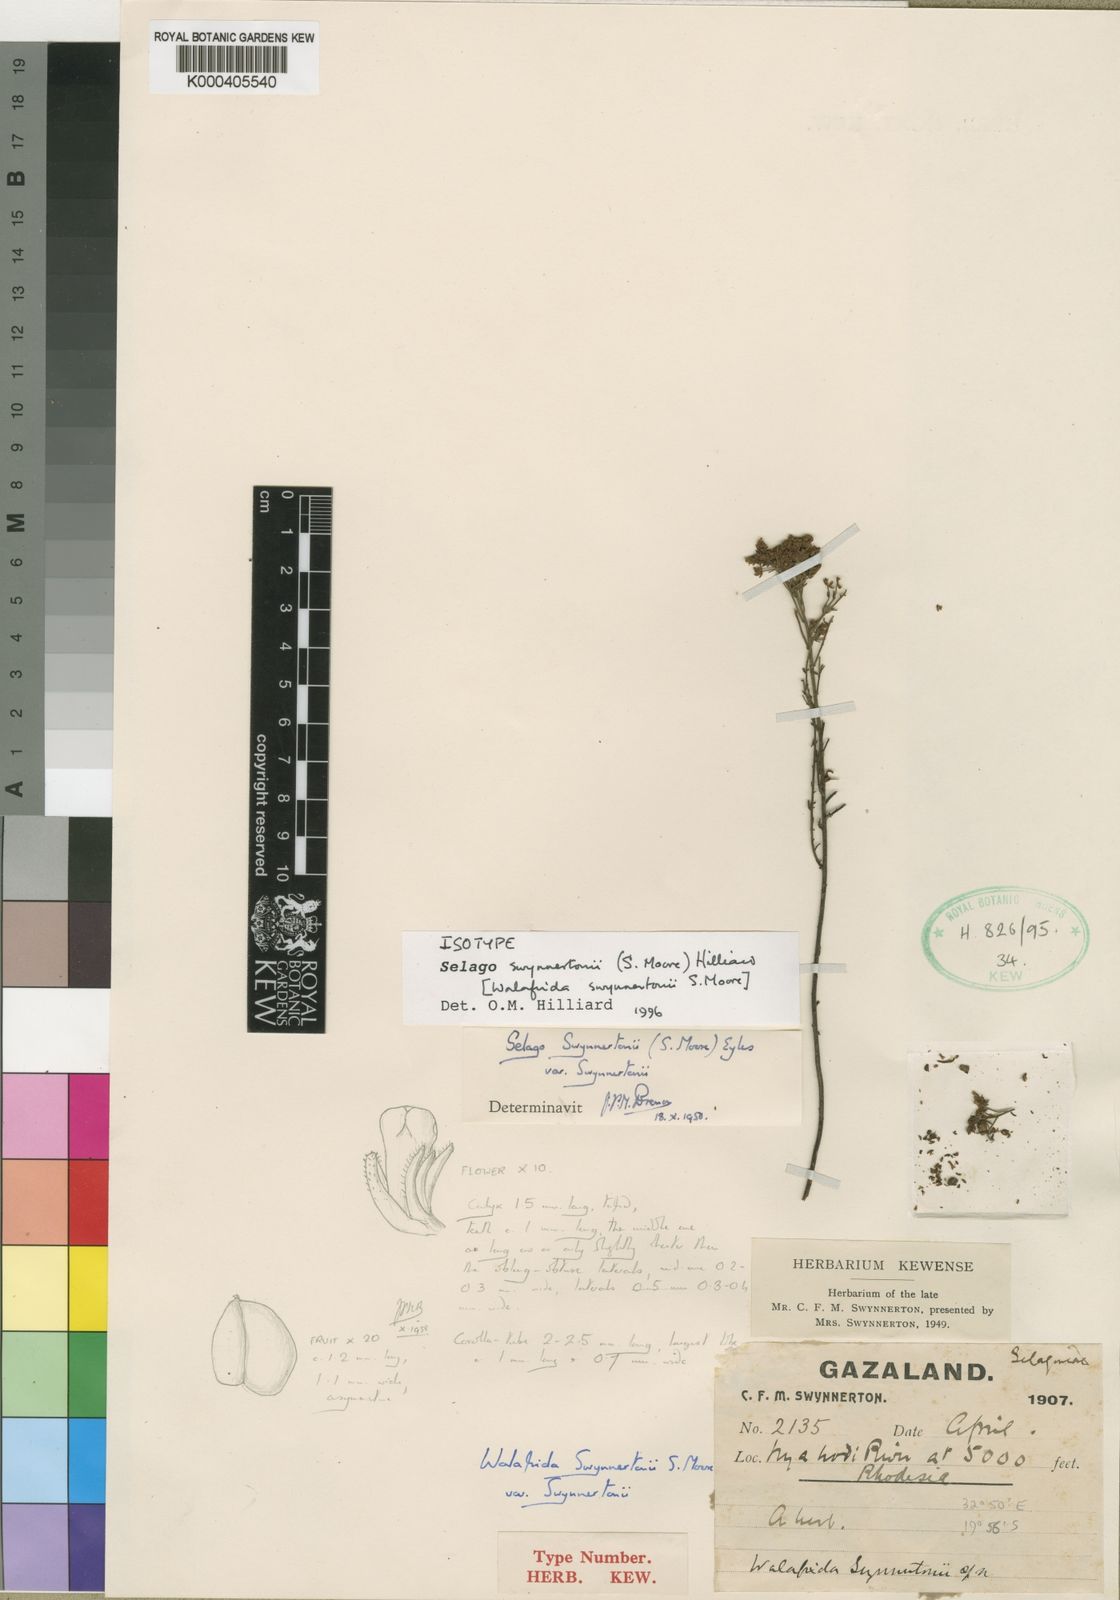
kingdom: Plantae
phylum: Tracheophyta
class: Magnoliopsida
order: Lamiales
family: Scrophulariaceae
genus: Selago
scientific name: Selago
